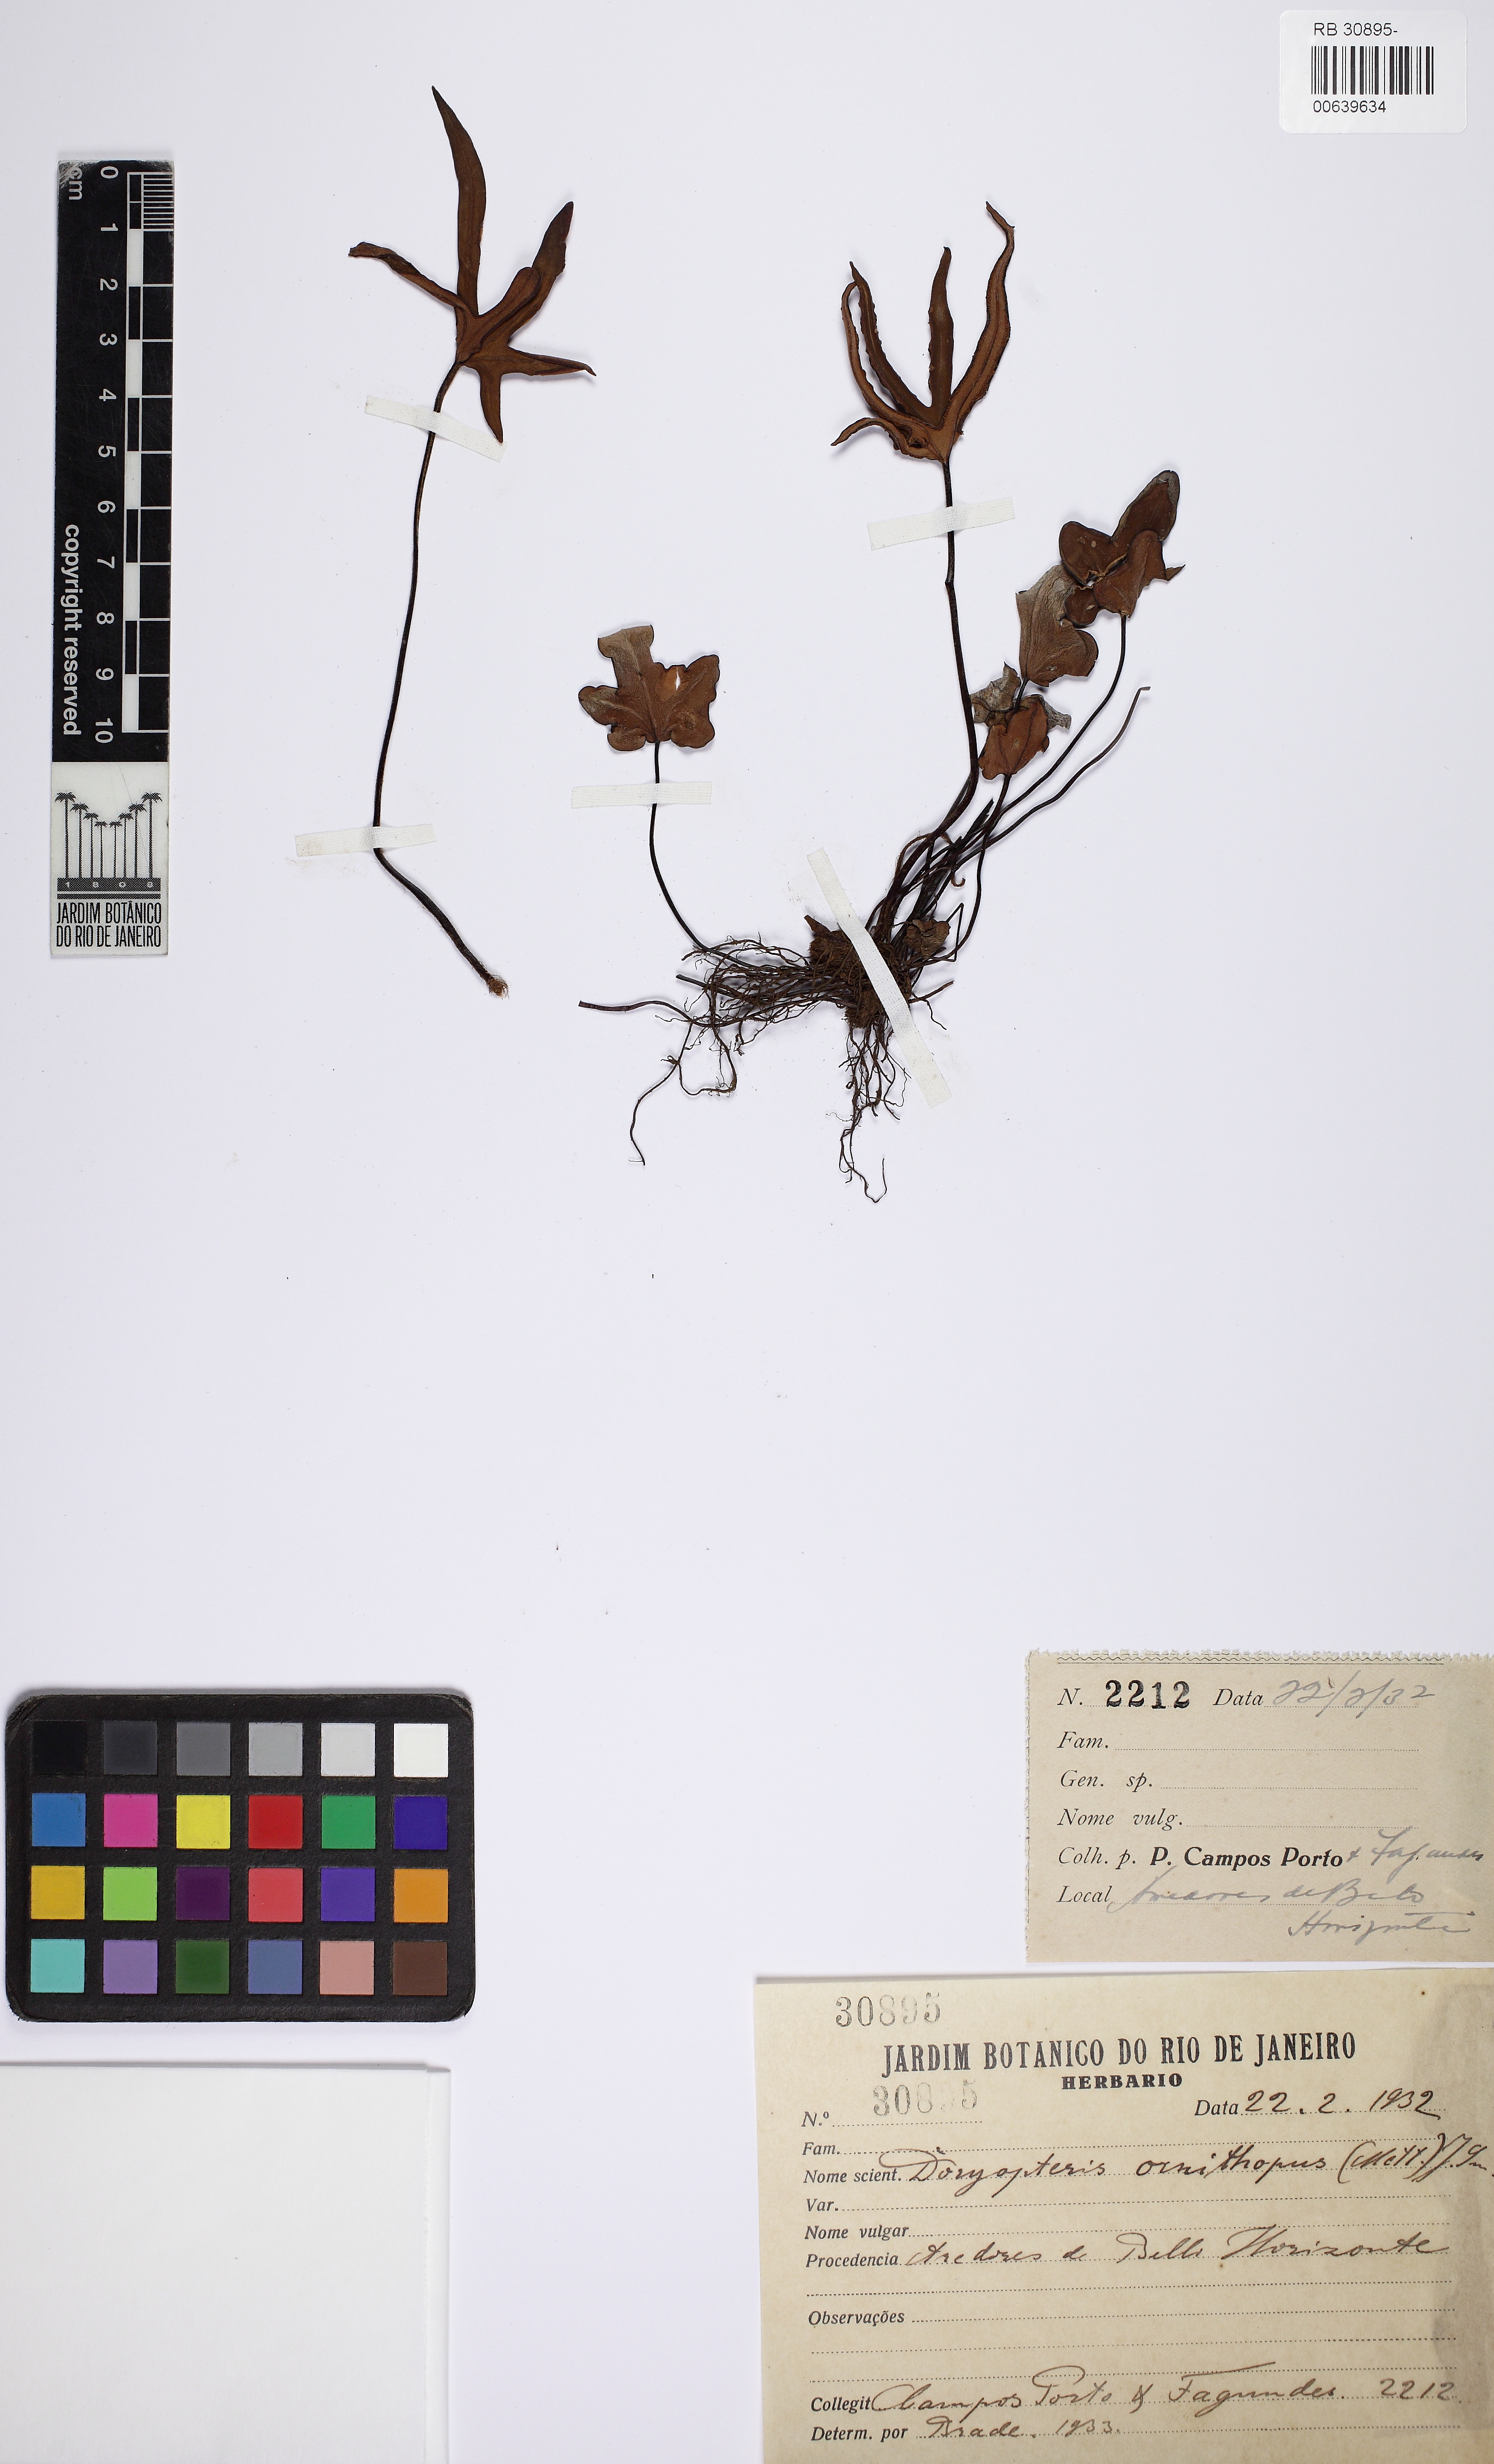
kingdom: Plantae
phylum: Tracheophyta
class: Polypodiopsida
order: Polypodiales
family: Pteridaceae
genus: Lytoneuron
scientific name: Lytoneuron ornithopus
